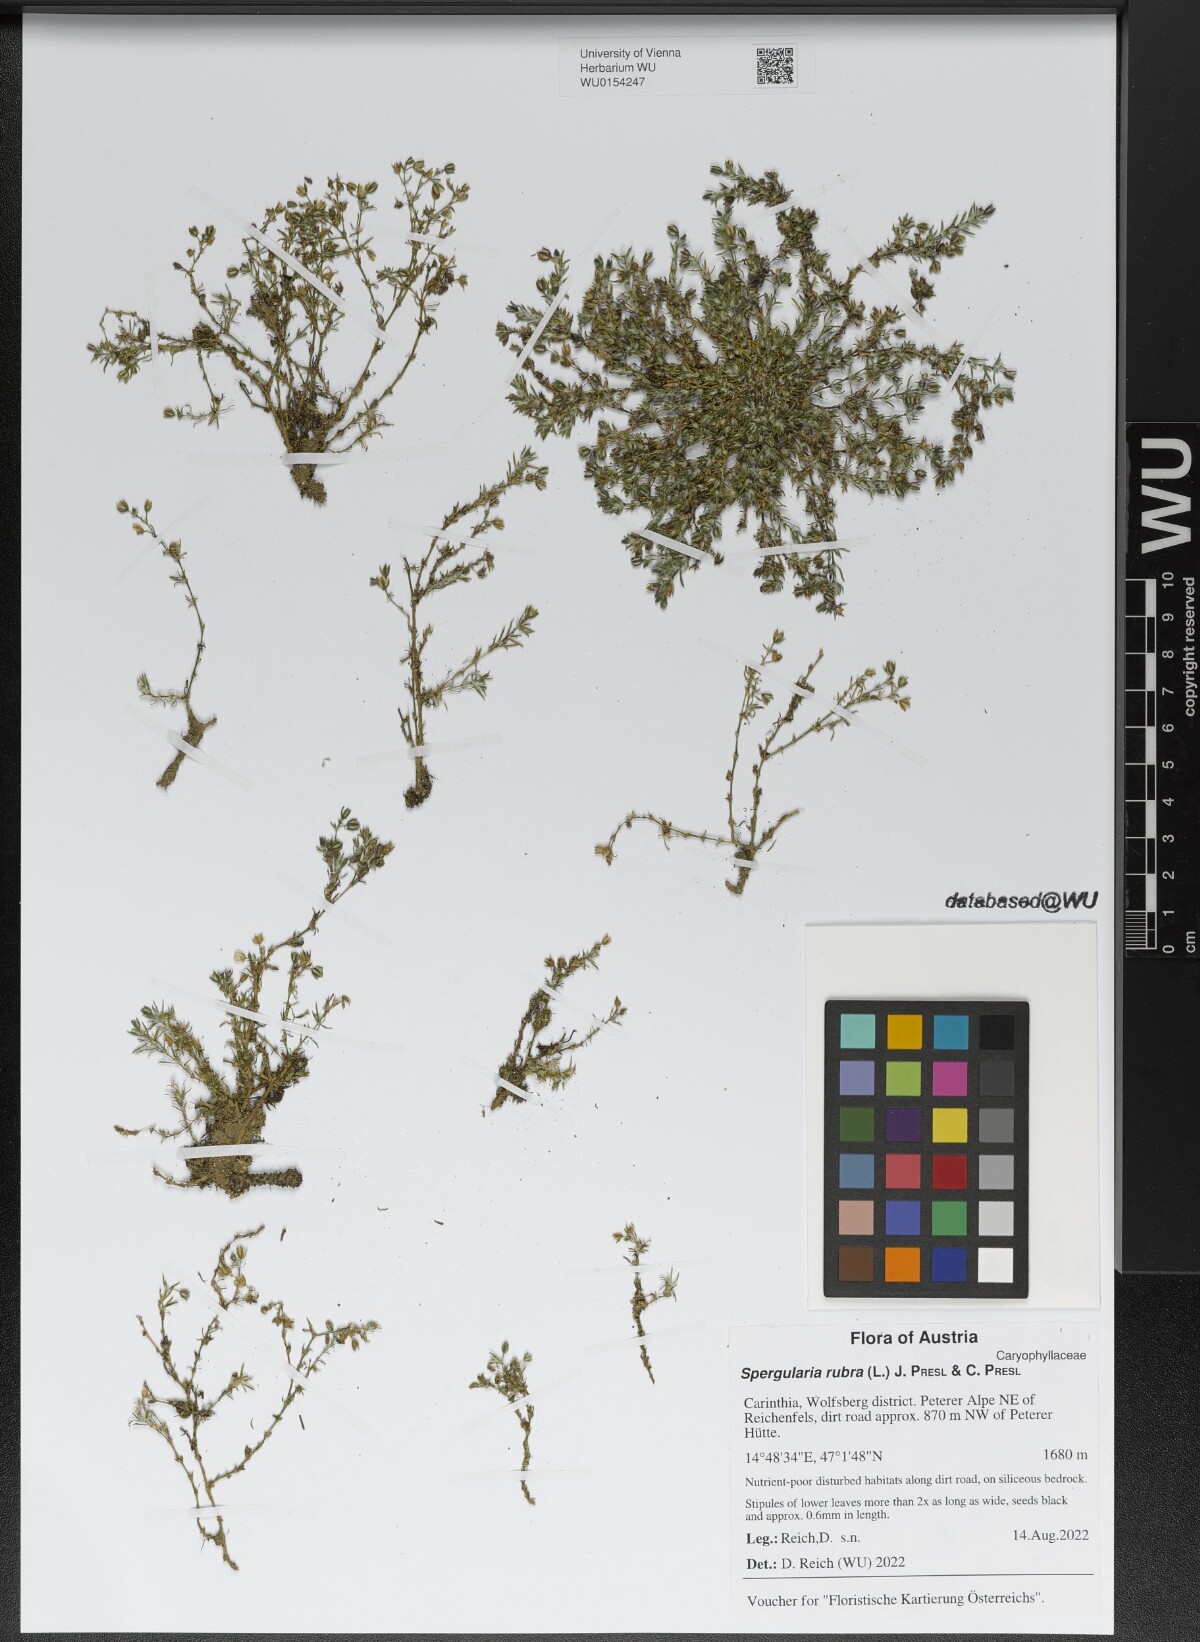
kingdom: Plantae
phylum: Tracheophyta
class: Magnoliopsida
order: Caryophyllales
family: Caryophyllaceae
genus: Spergularia
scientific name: Spergularia rubra
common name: Red sand-spurrey
